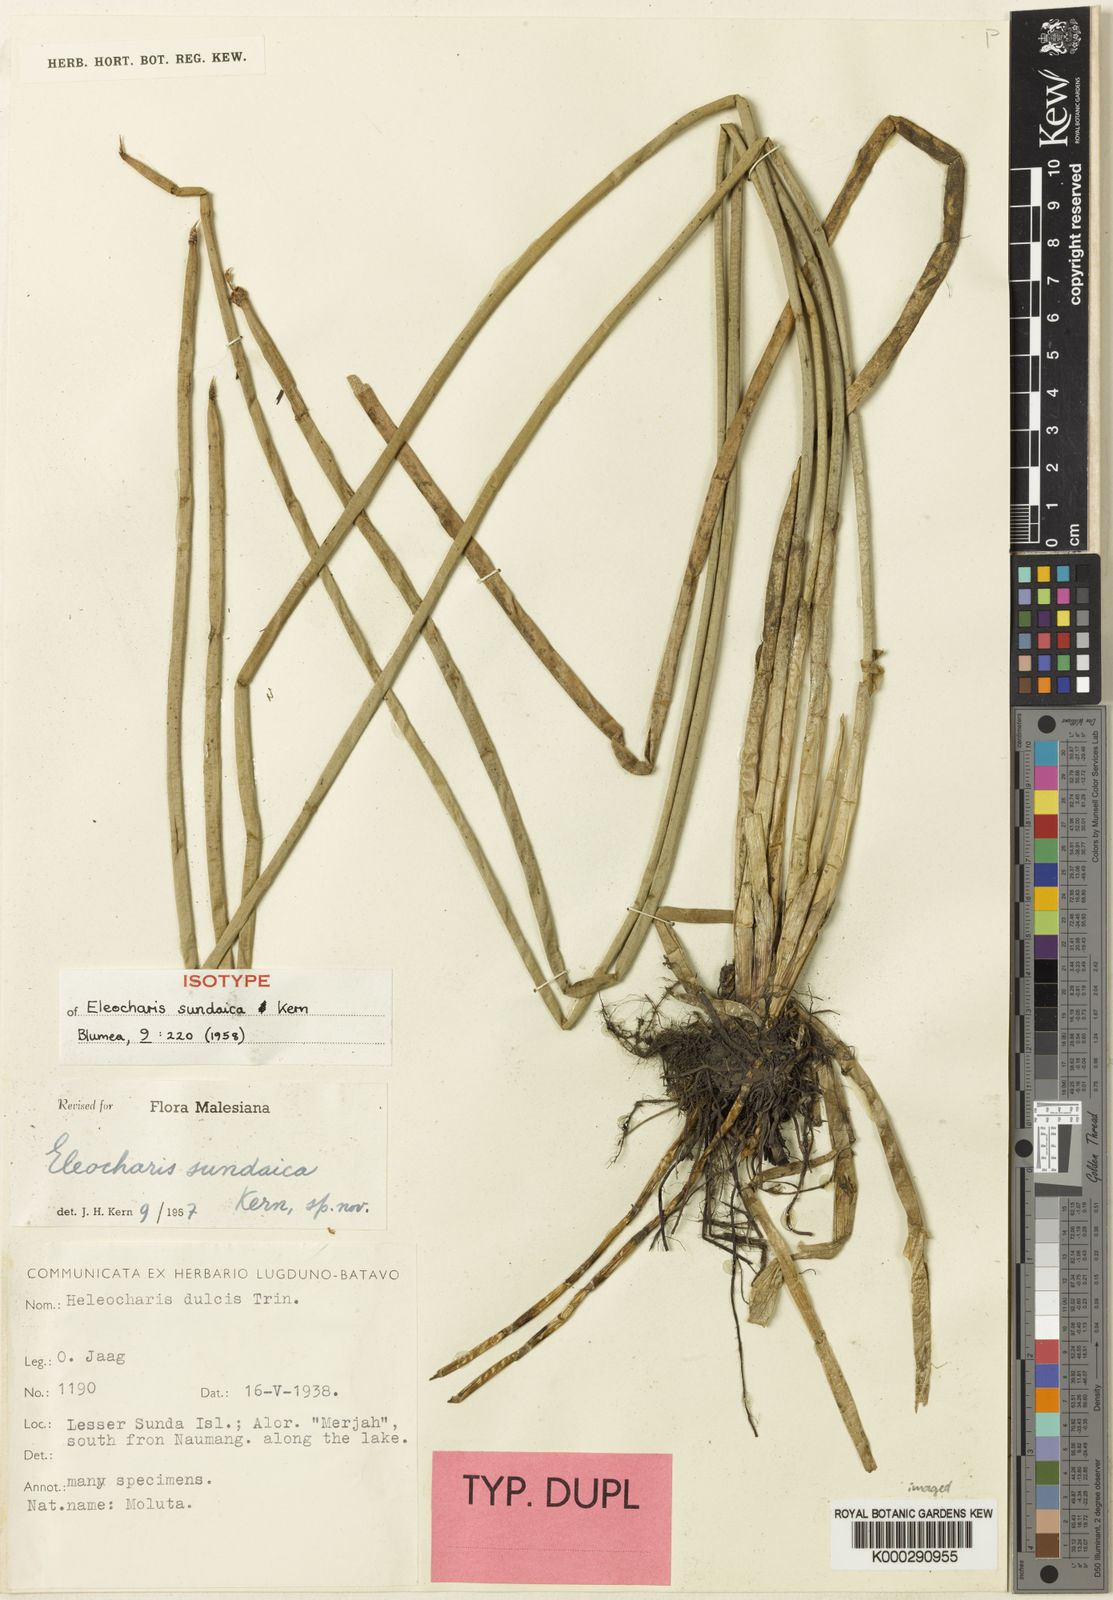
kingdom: Plantae
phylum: Tracheophyta
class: Liliopsida
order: Poales
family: Cyperaceae
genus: Eleocharis
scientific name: Eleocharis sundaica
